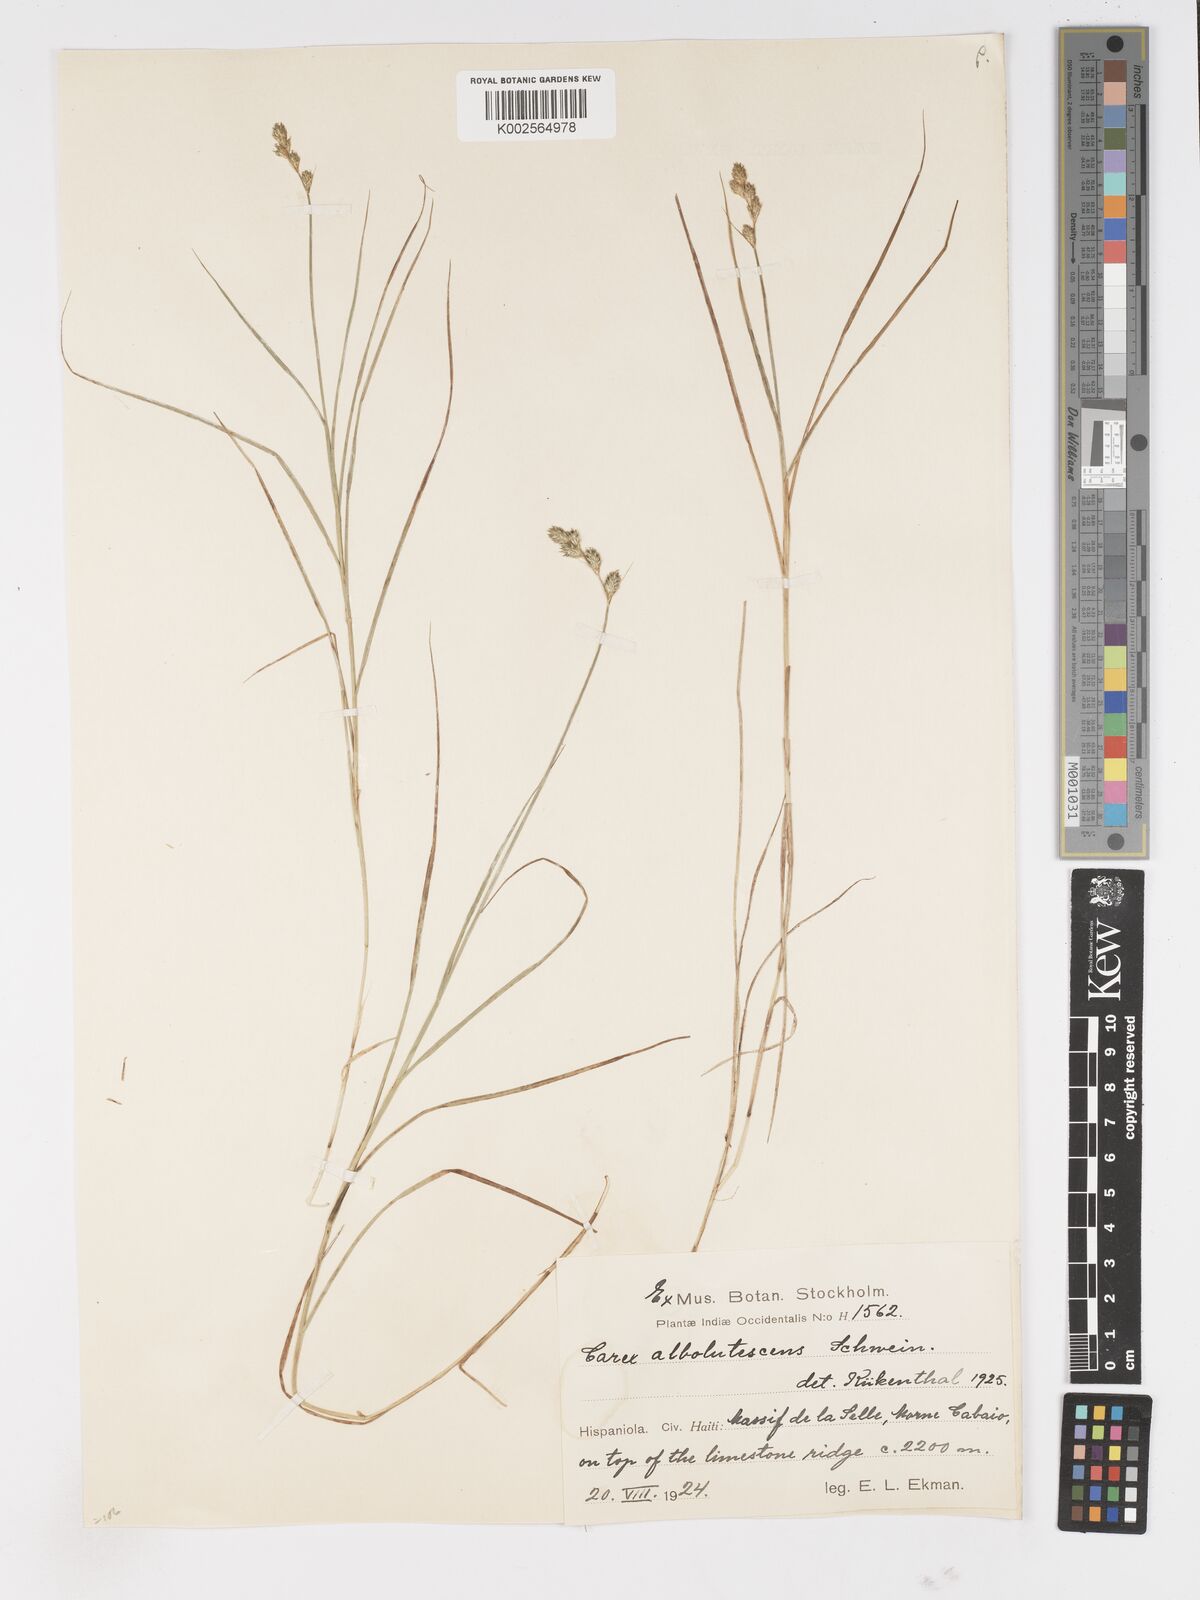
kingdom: Plantae
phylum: Tracheophyta
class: Liliopsida
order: Poales
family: Cyperaceae
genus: Carex
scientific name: Carex longii
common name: Long's sedge
